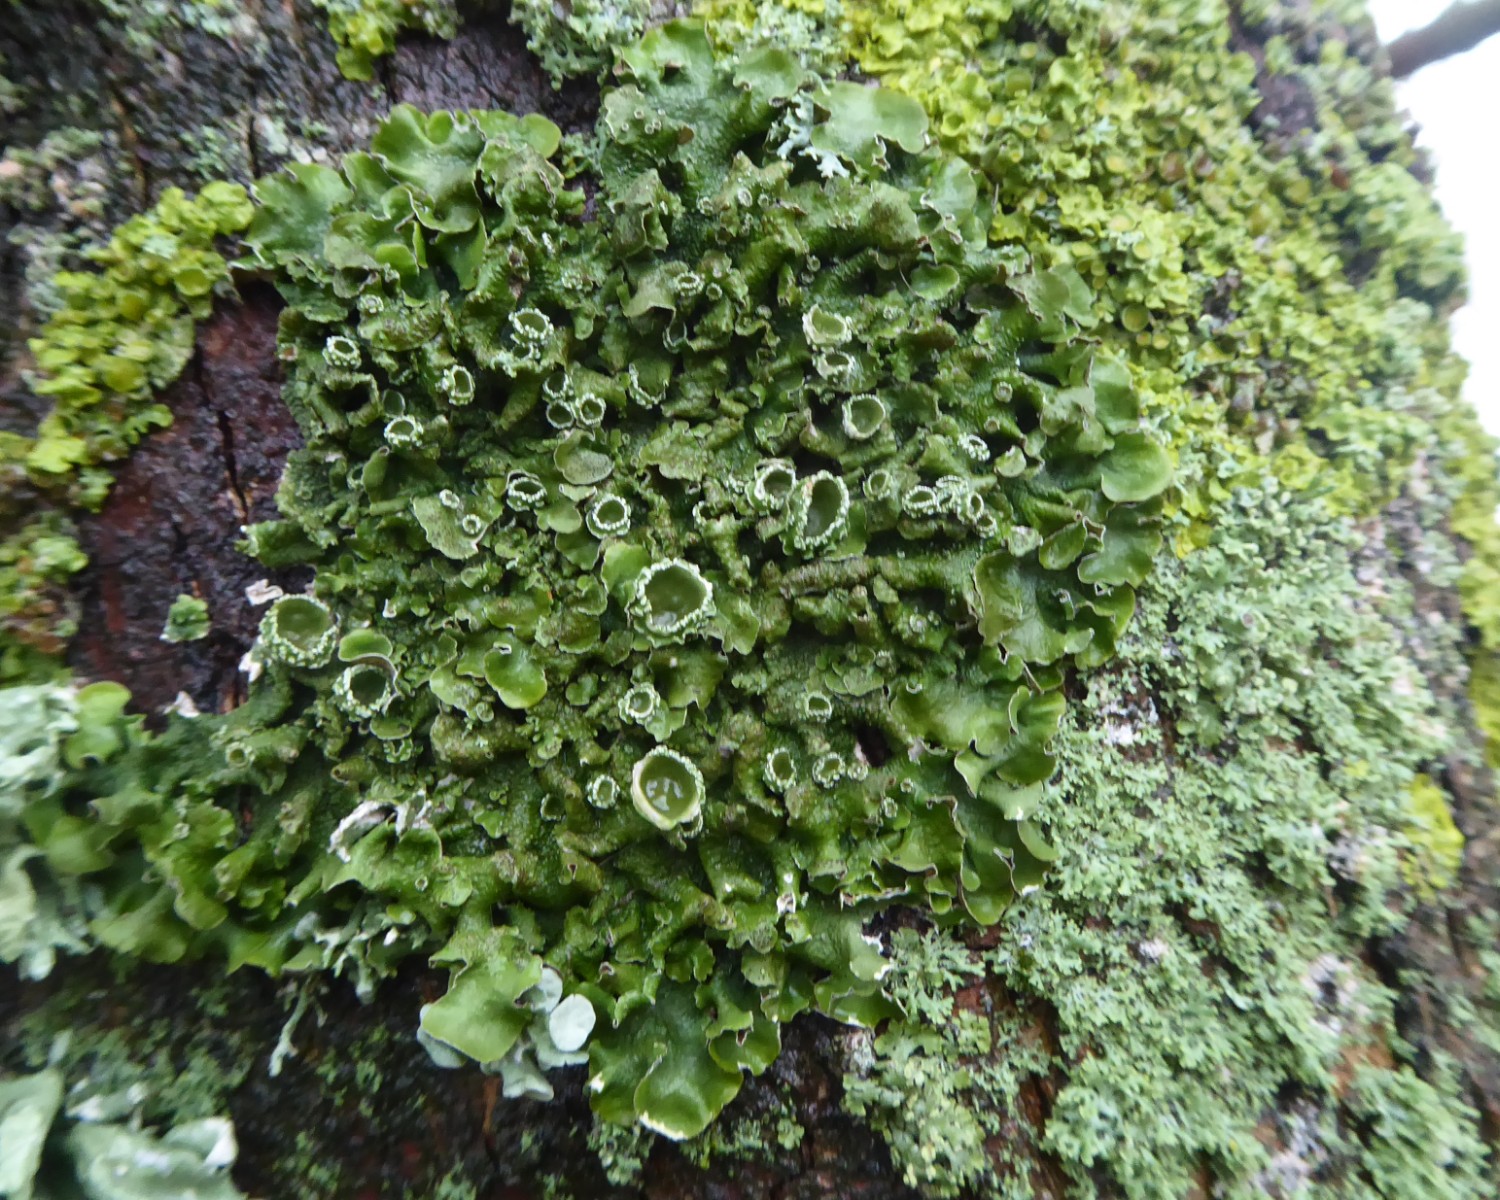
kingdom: Fungi
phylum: Ascomycota
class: Lecanoromycetes
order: Lecanorales
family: Parmeliaceae
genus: Pleurosticta
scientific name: Pleurosticta acetabulum
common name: stor skållav
